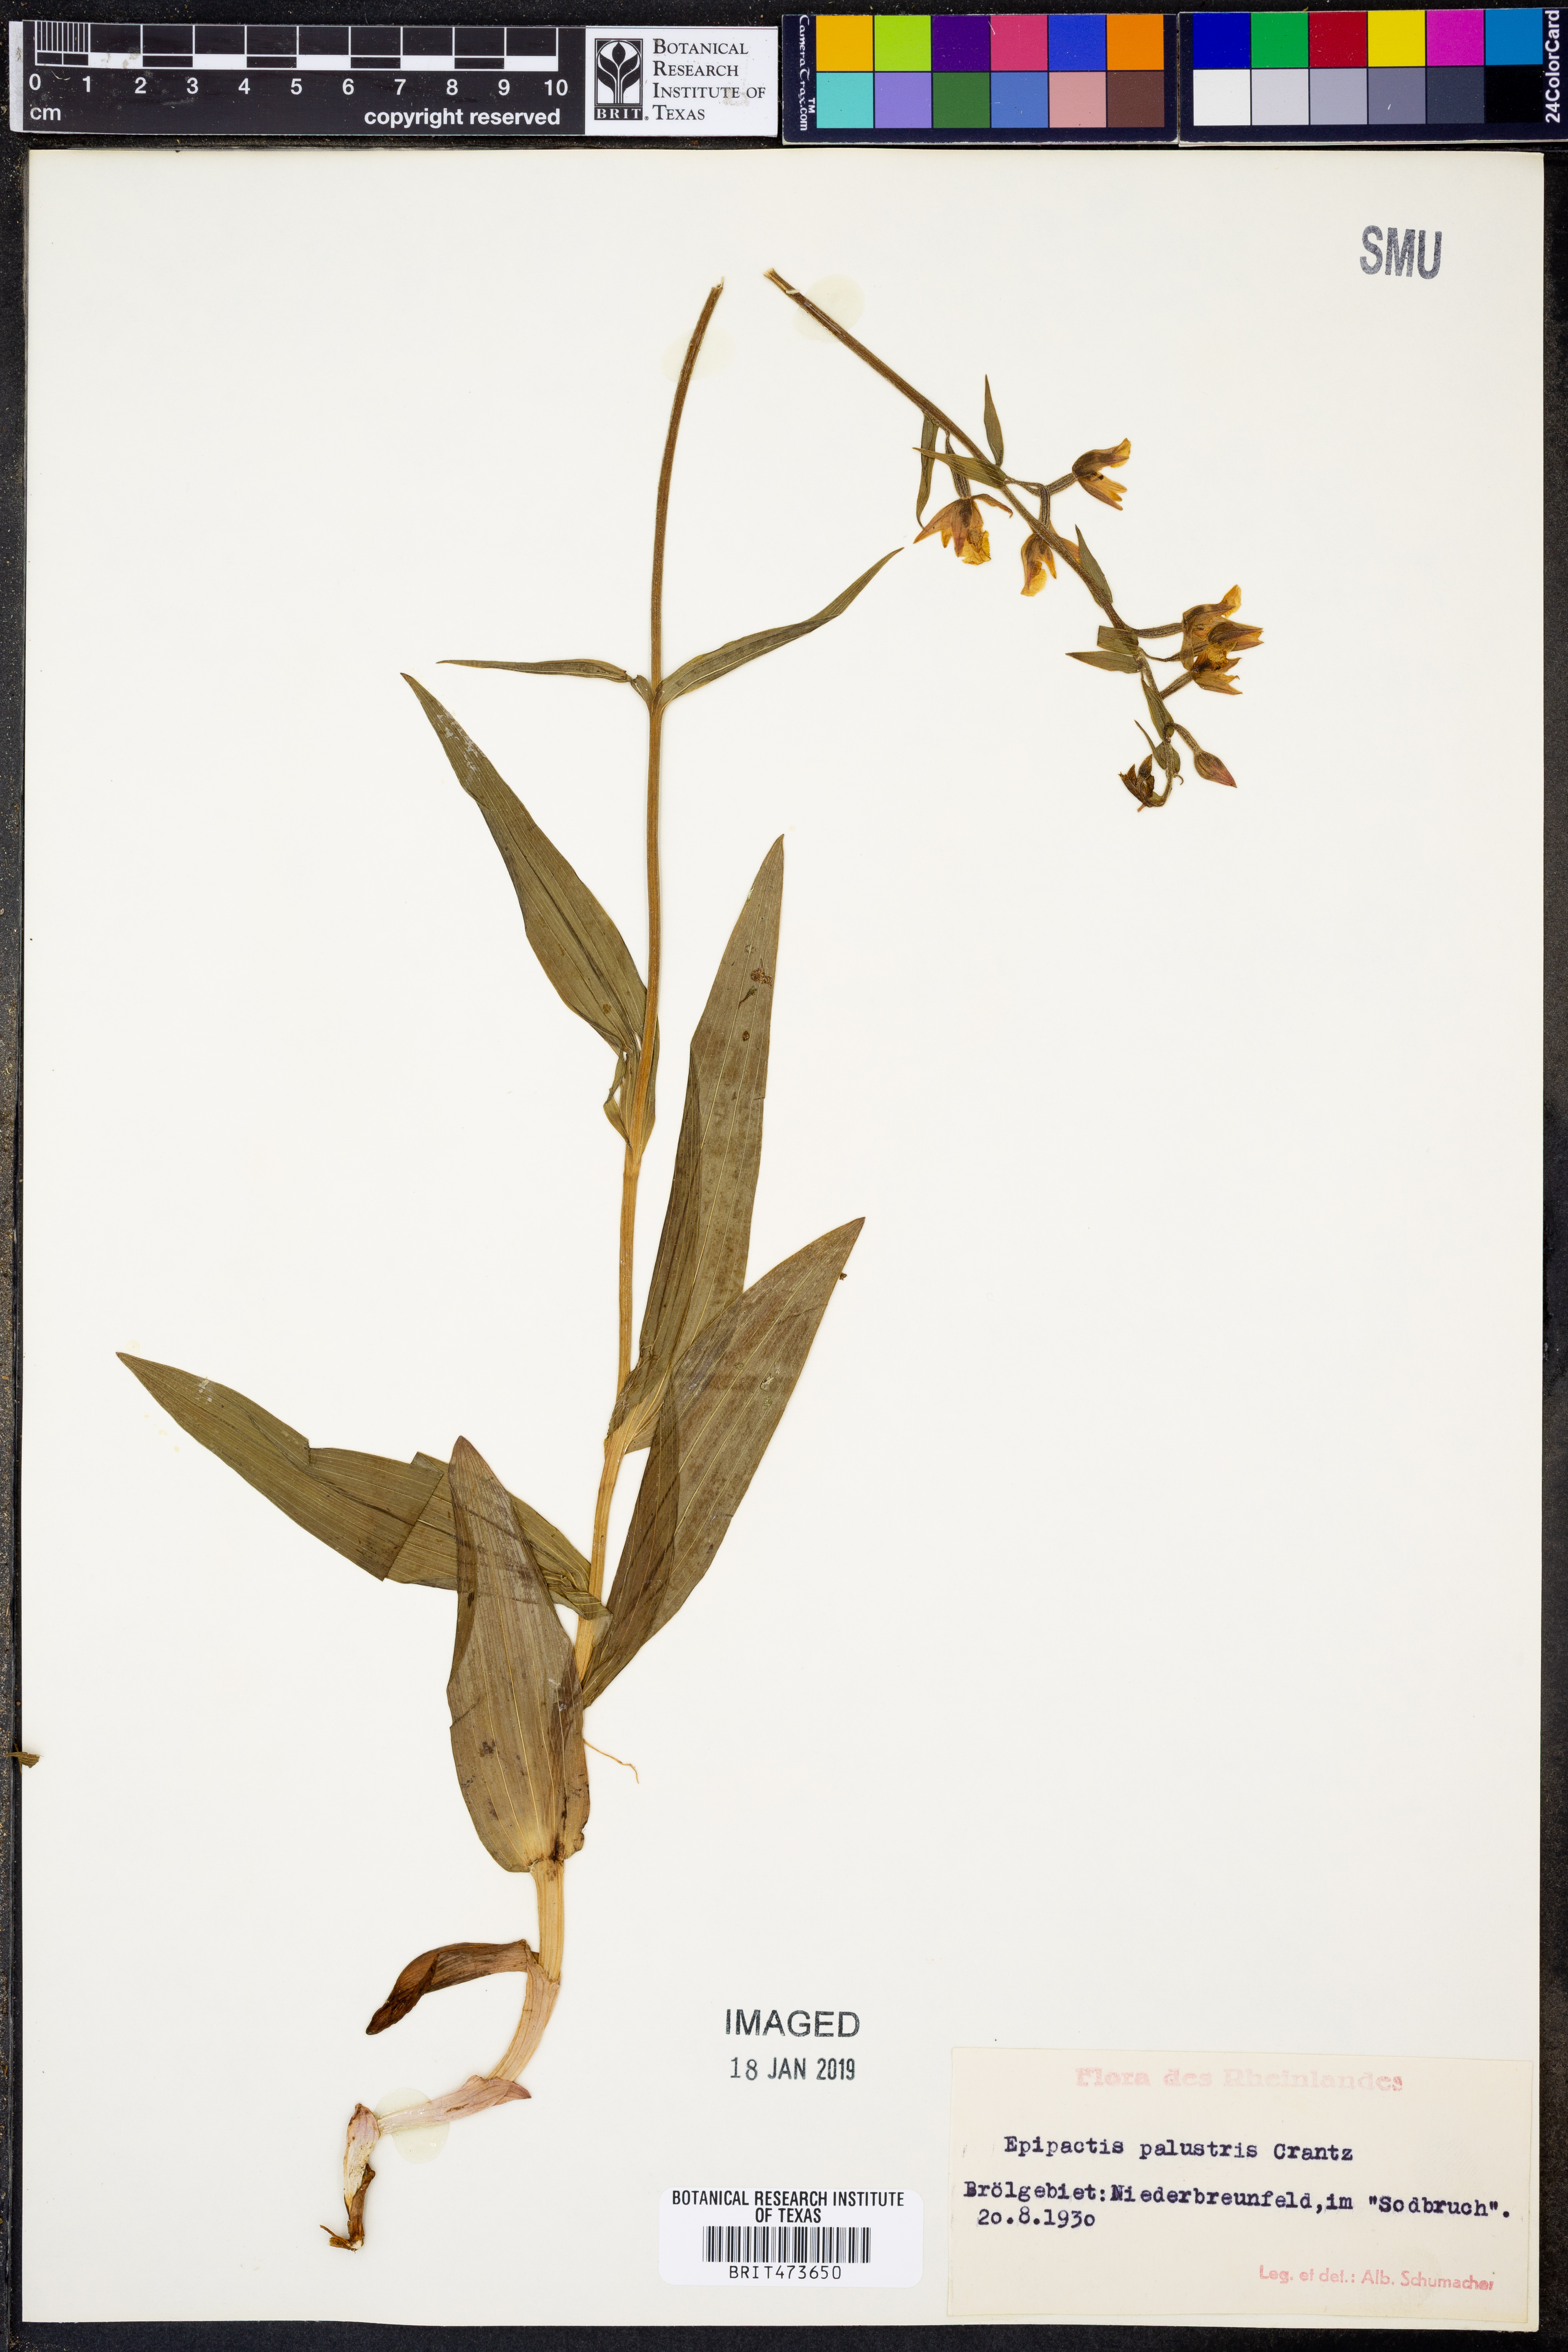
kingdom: Plantae
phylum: Tracheophyta
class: Liliopsida
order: Asparagales
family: Orchidaceae
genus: Epipactis
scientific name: Epipactis palustris
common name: Marsh helleborine
